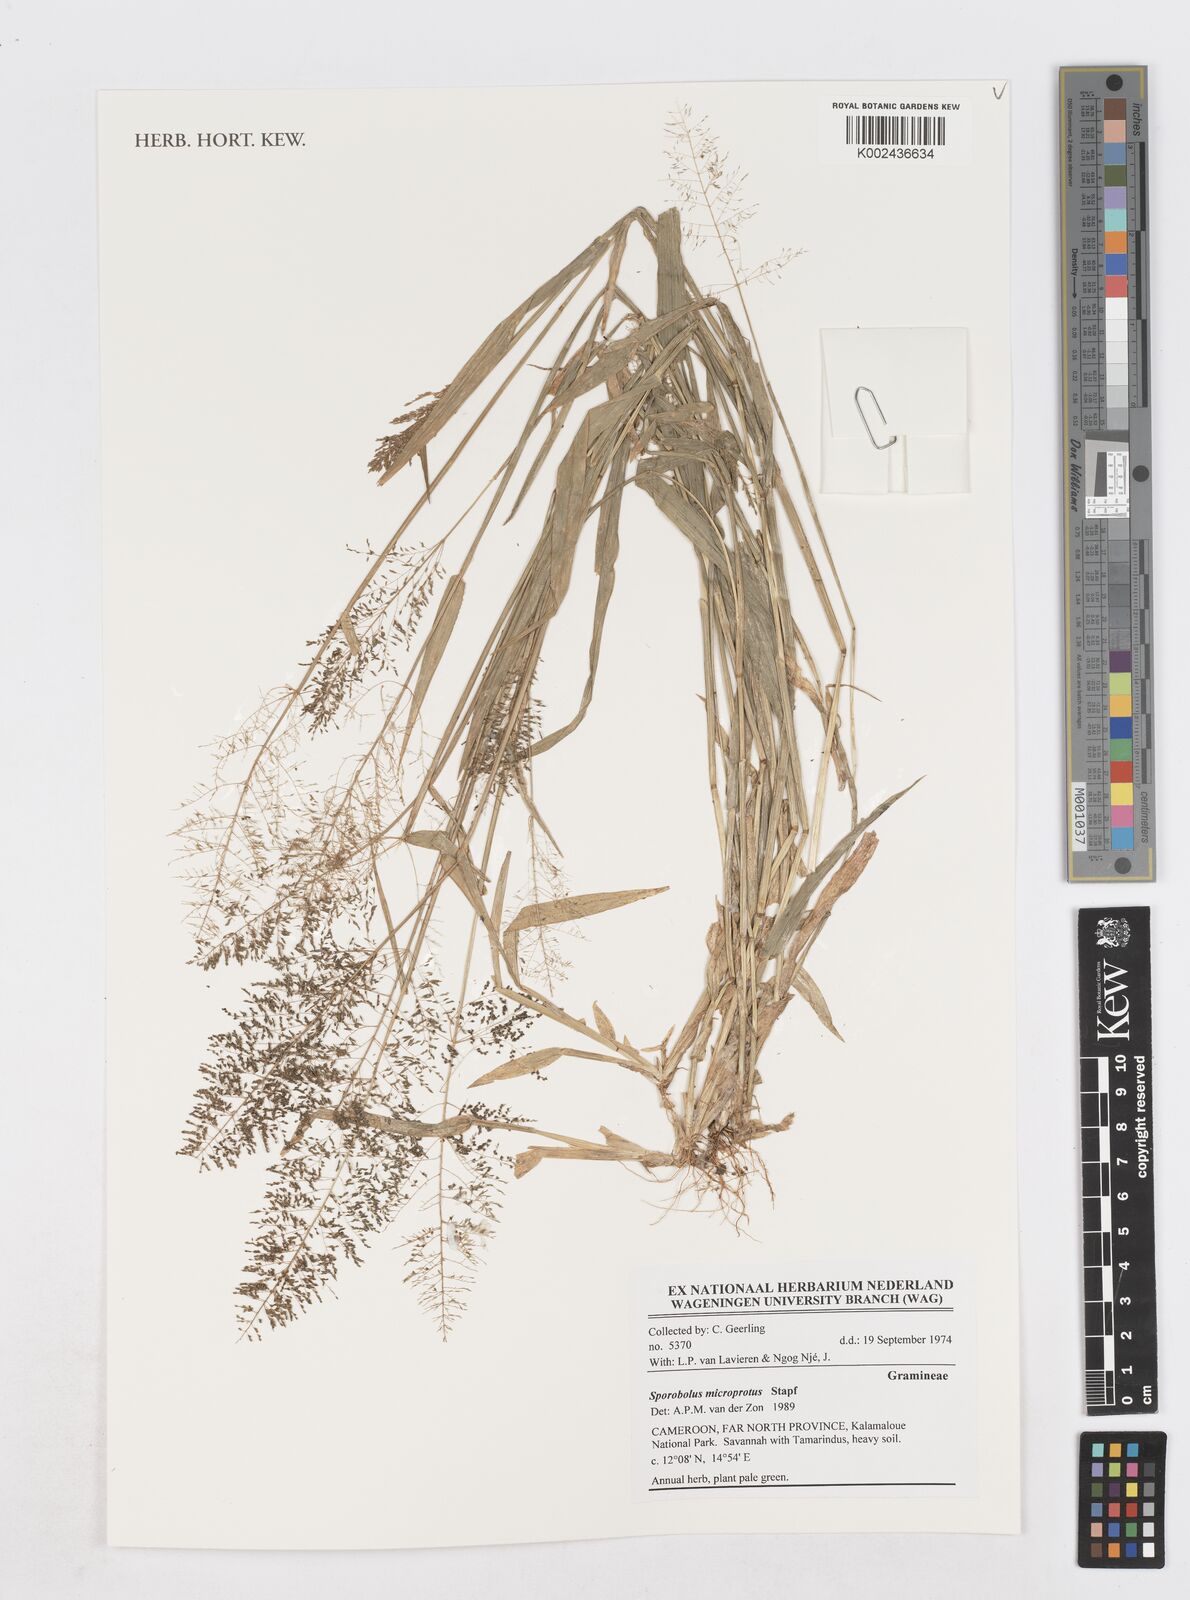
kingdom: Plantae
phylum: Tracheophyta
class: Liliopsida
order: Poales
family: Poaceae
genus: Sporobolus
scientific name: Sporobolus microprotus
